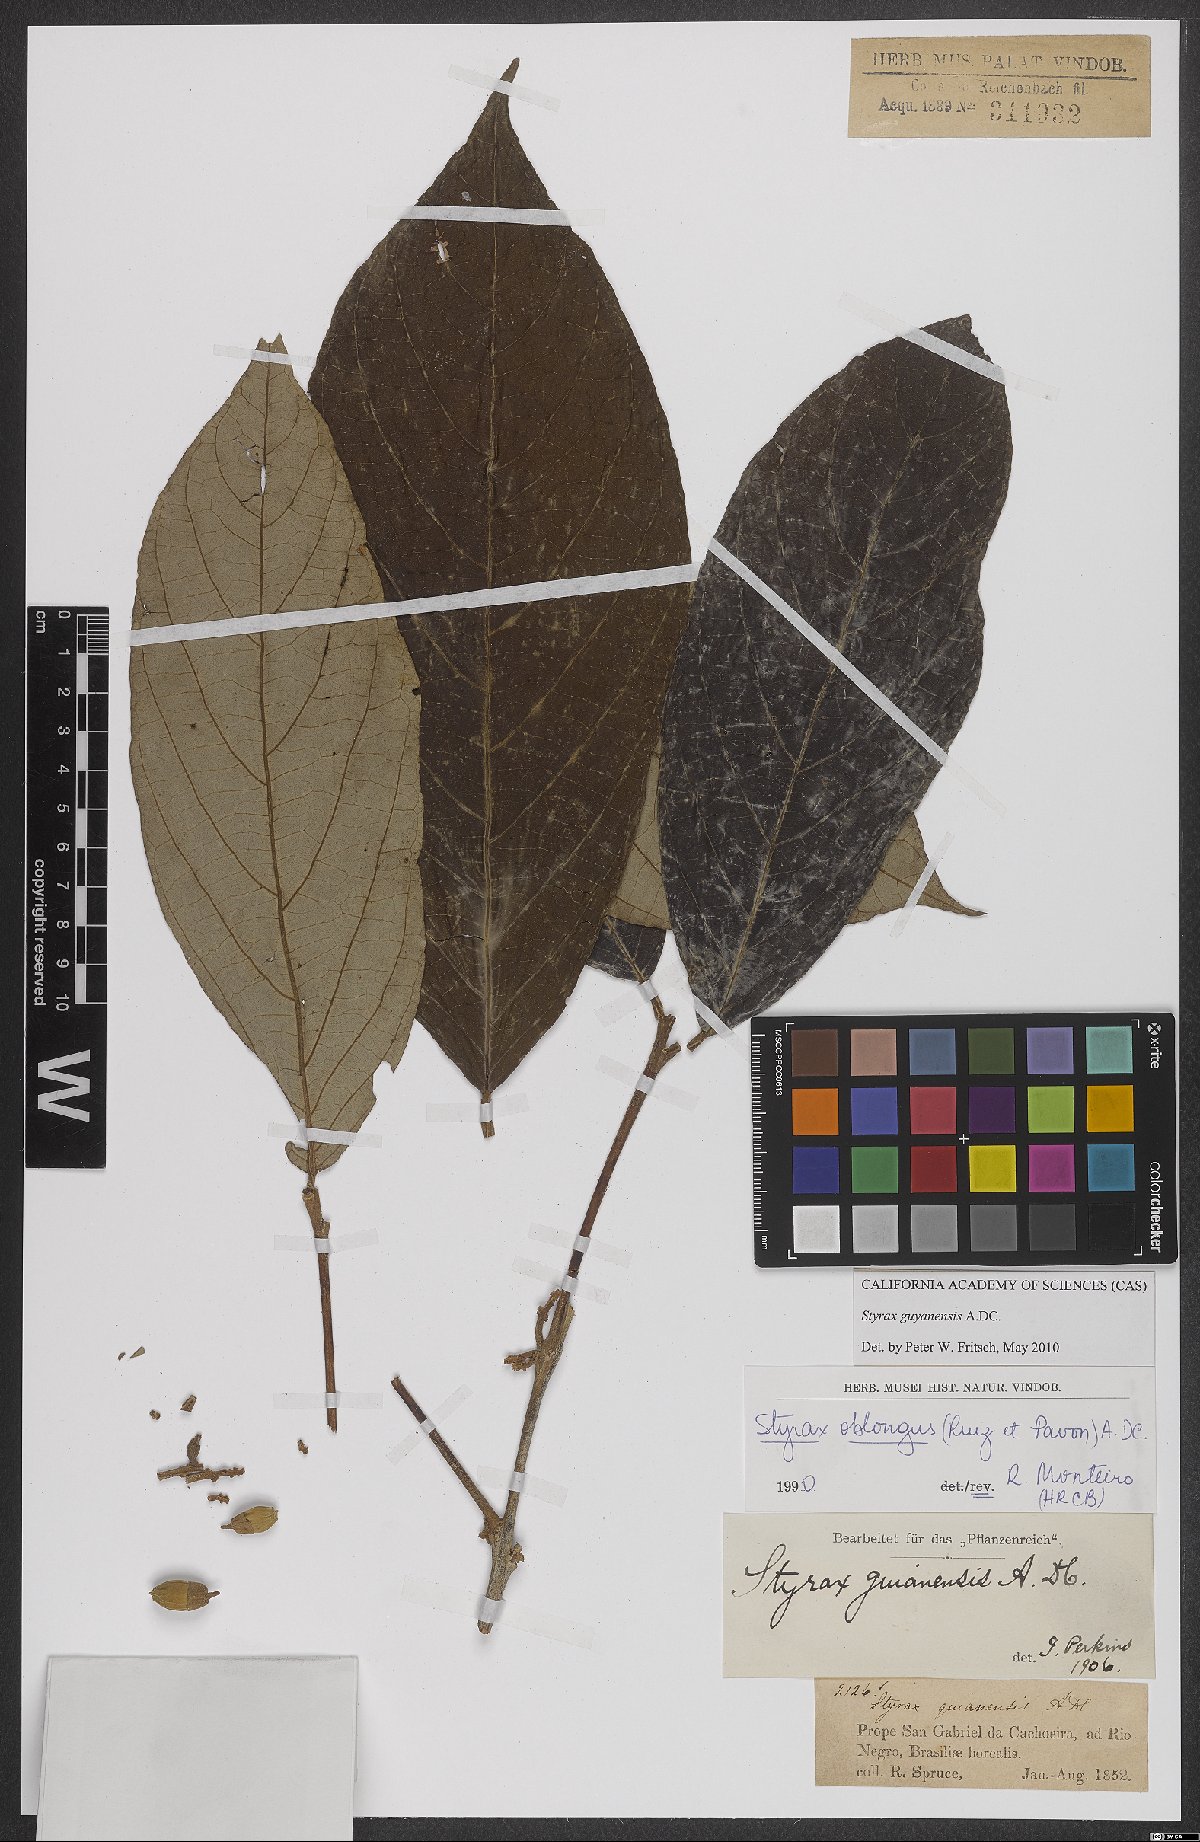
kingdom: Plantae
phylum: Tracheophyta
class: Magnoliopsida
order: Ericales
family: Styracaceae
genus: Styrax
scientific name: Styrax guyanensis
